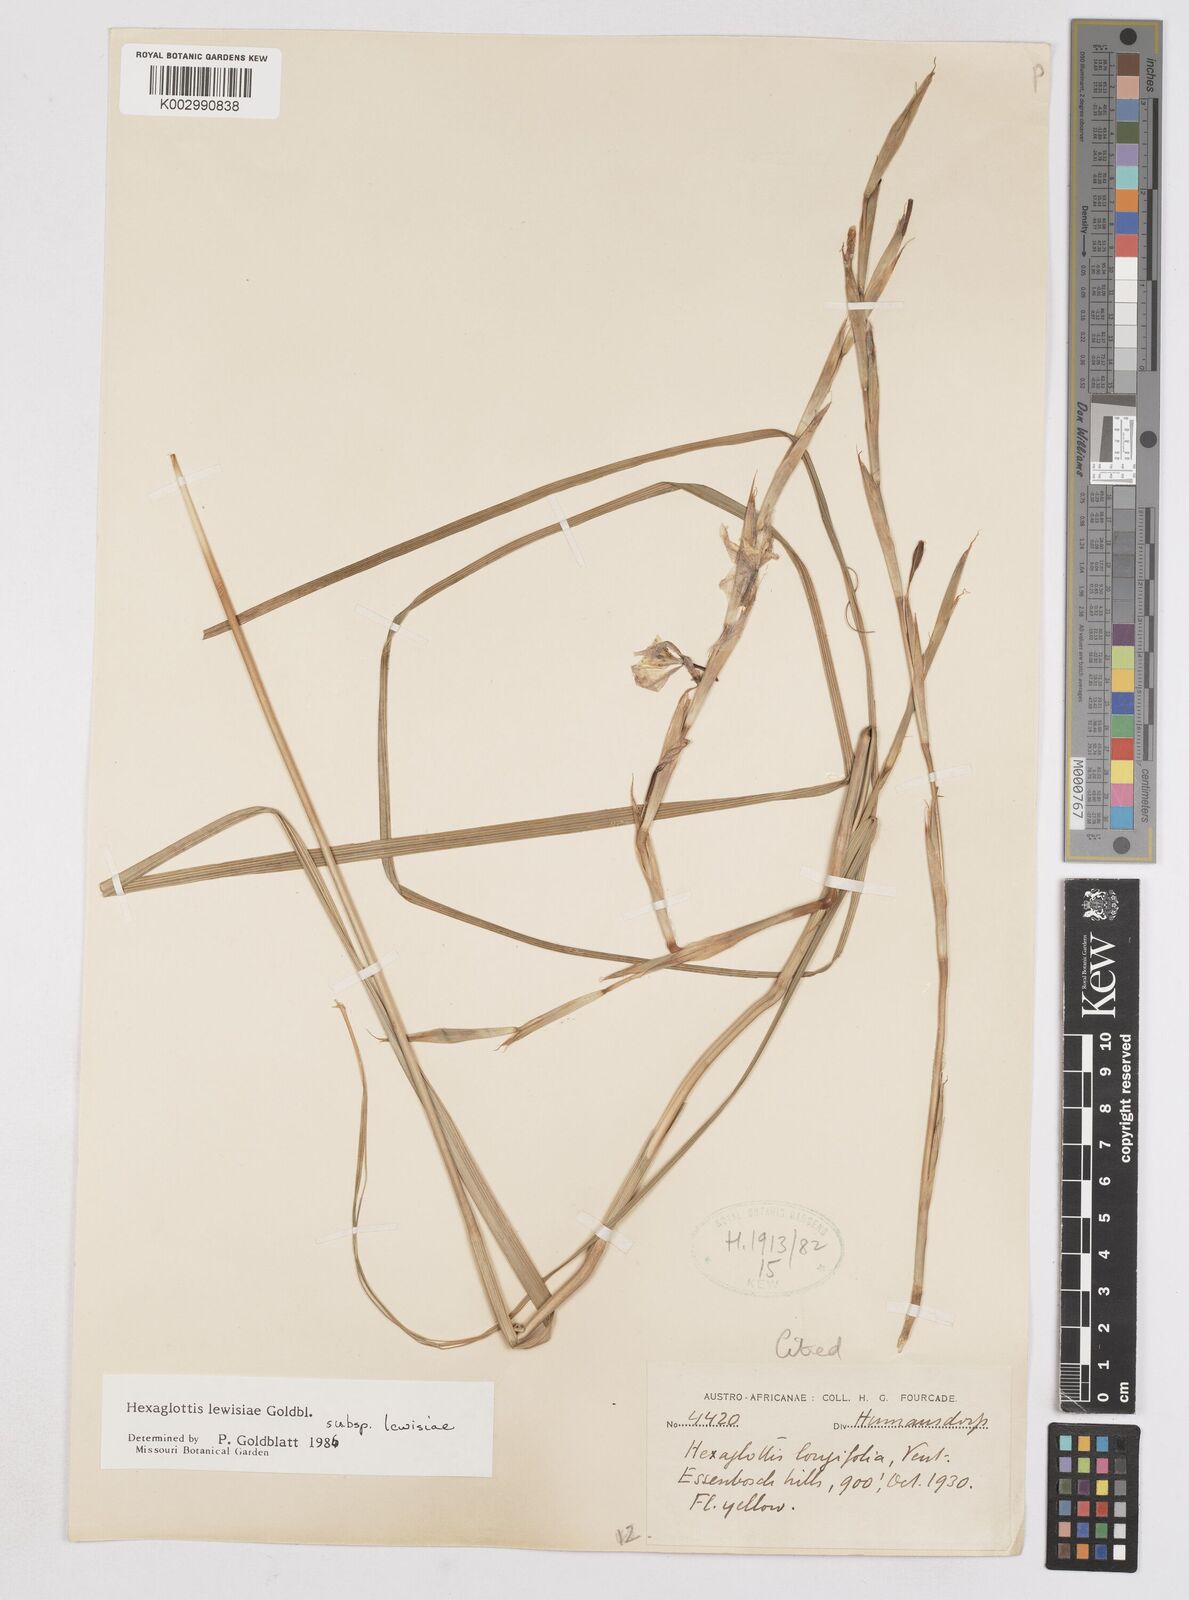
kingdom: Plantae
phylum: Tracheophyta
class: Liliopsida
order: Asparagales
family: Iridaceae
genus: Moraea
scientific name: Moraea lewisiae
